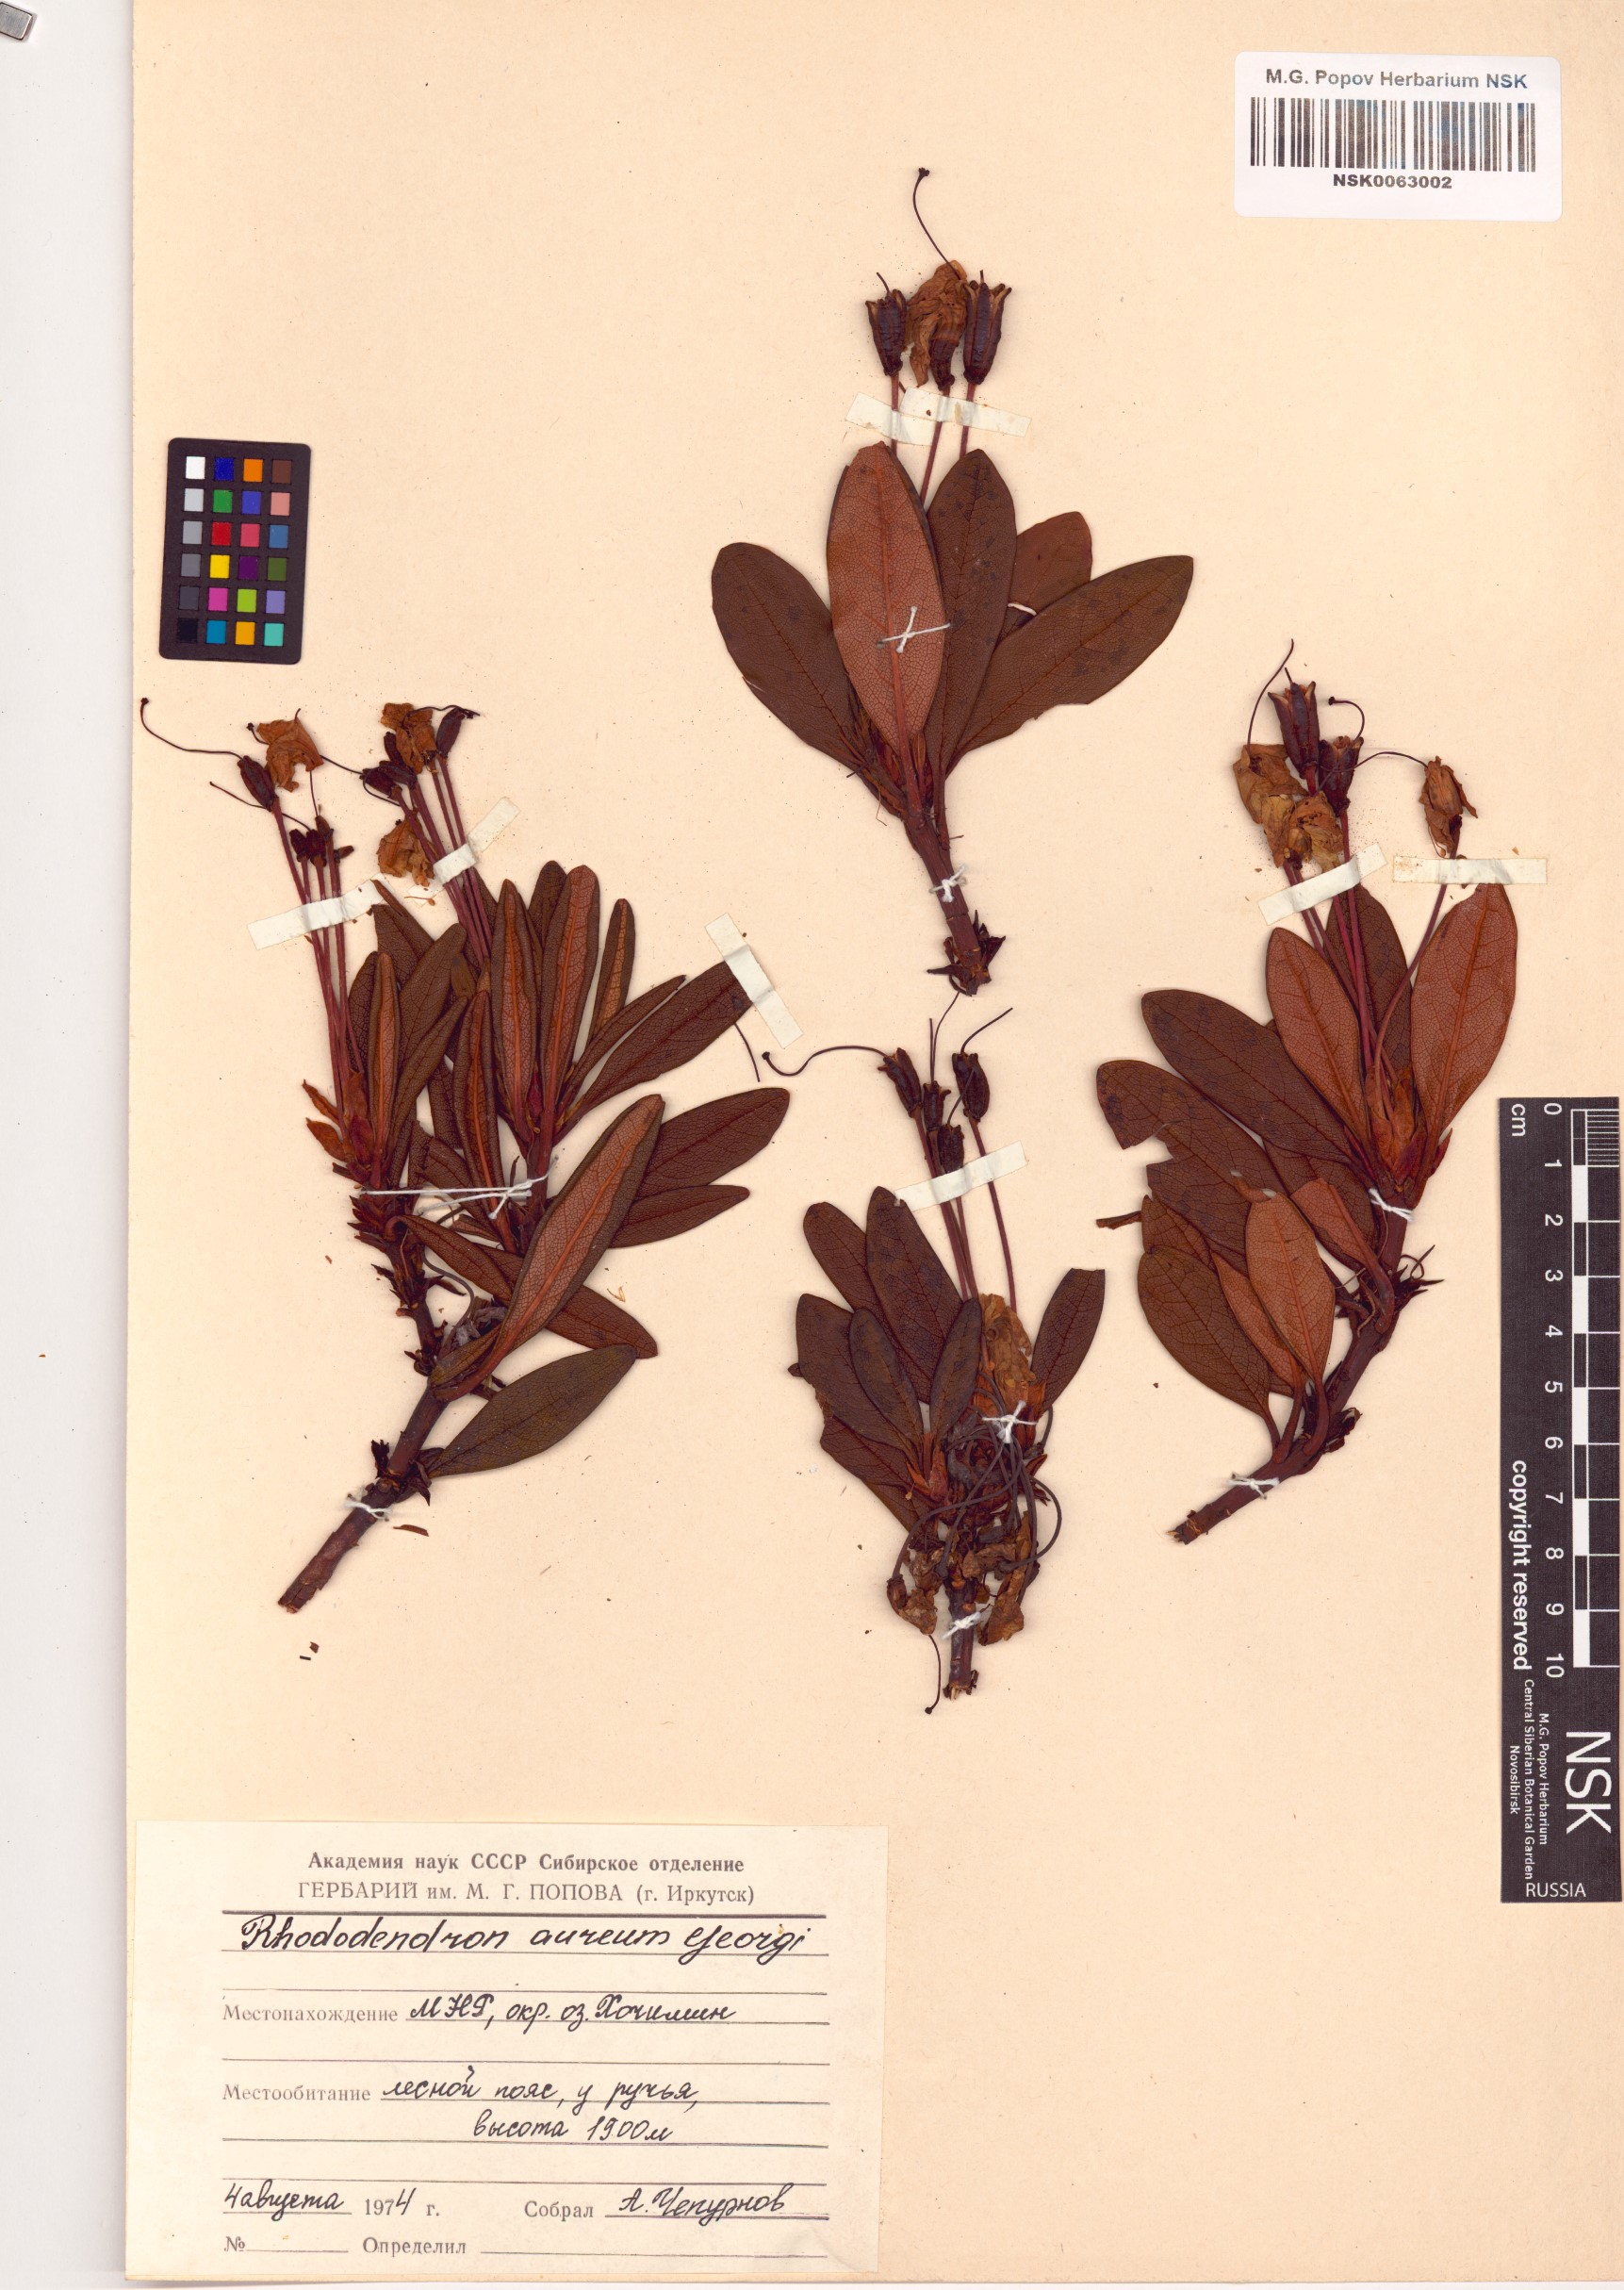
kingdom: Plantae
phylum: Tracheophyta
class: Magnoliopsida
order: Ericales
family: Ericaceae
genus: Rhododendron
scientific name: Rhododendron aureum
